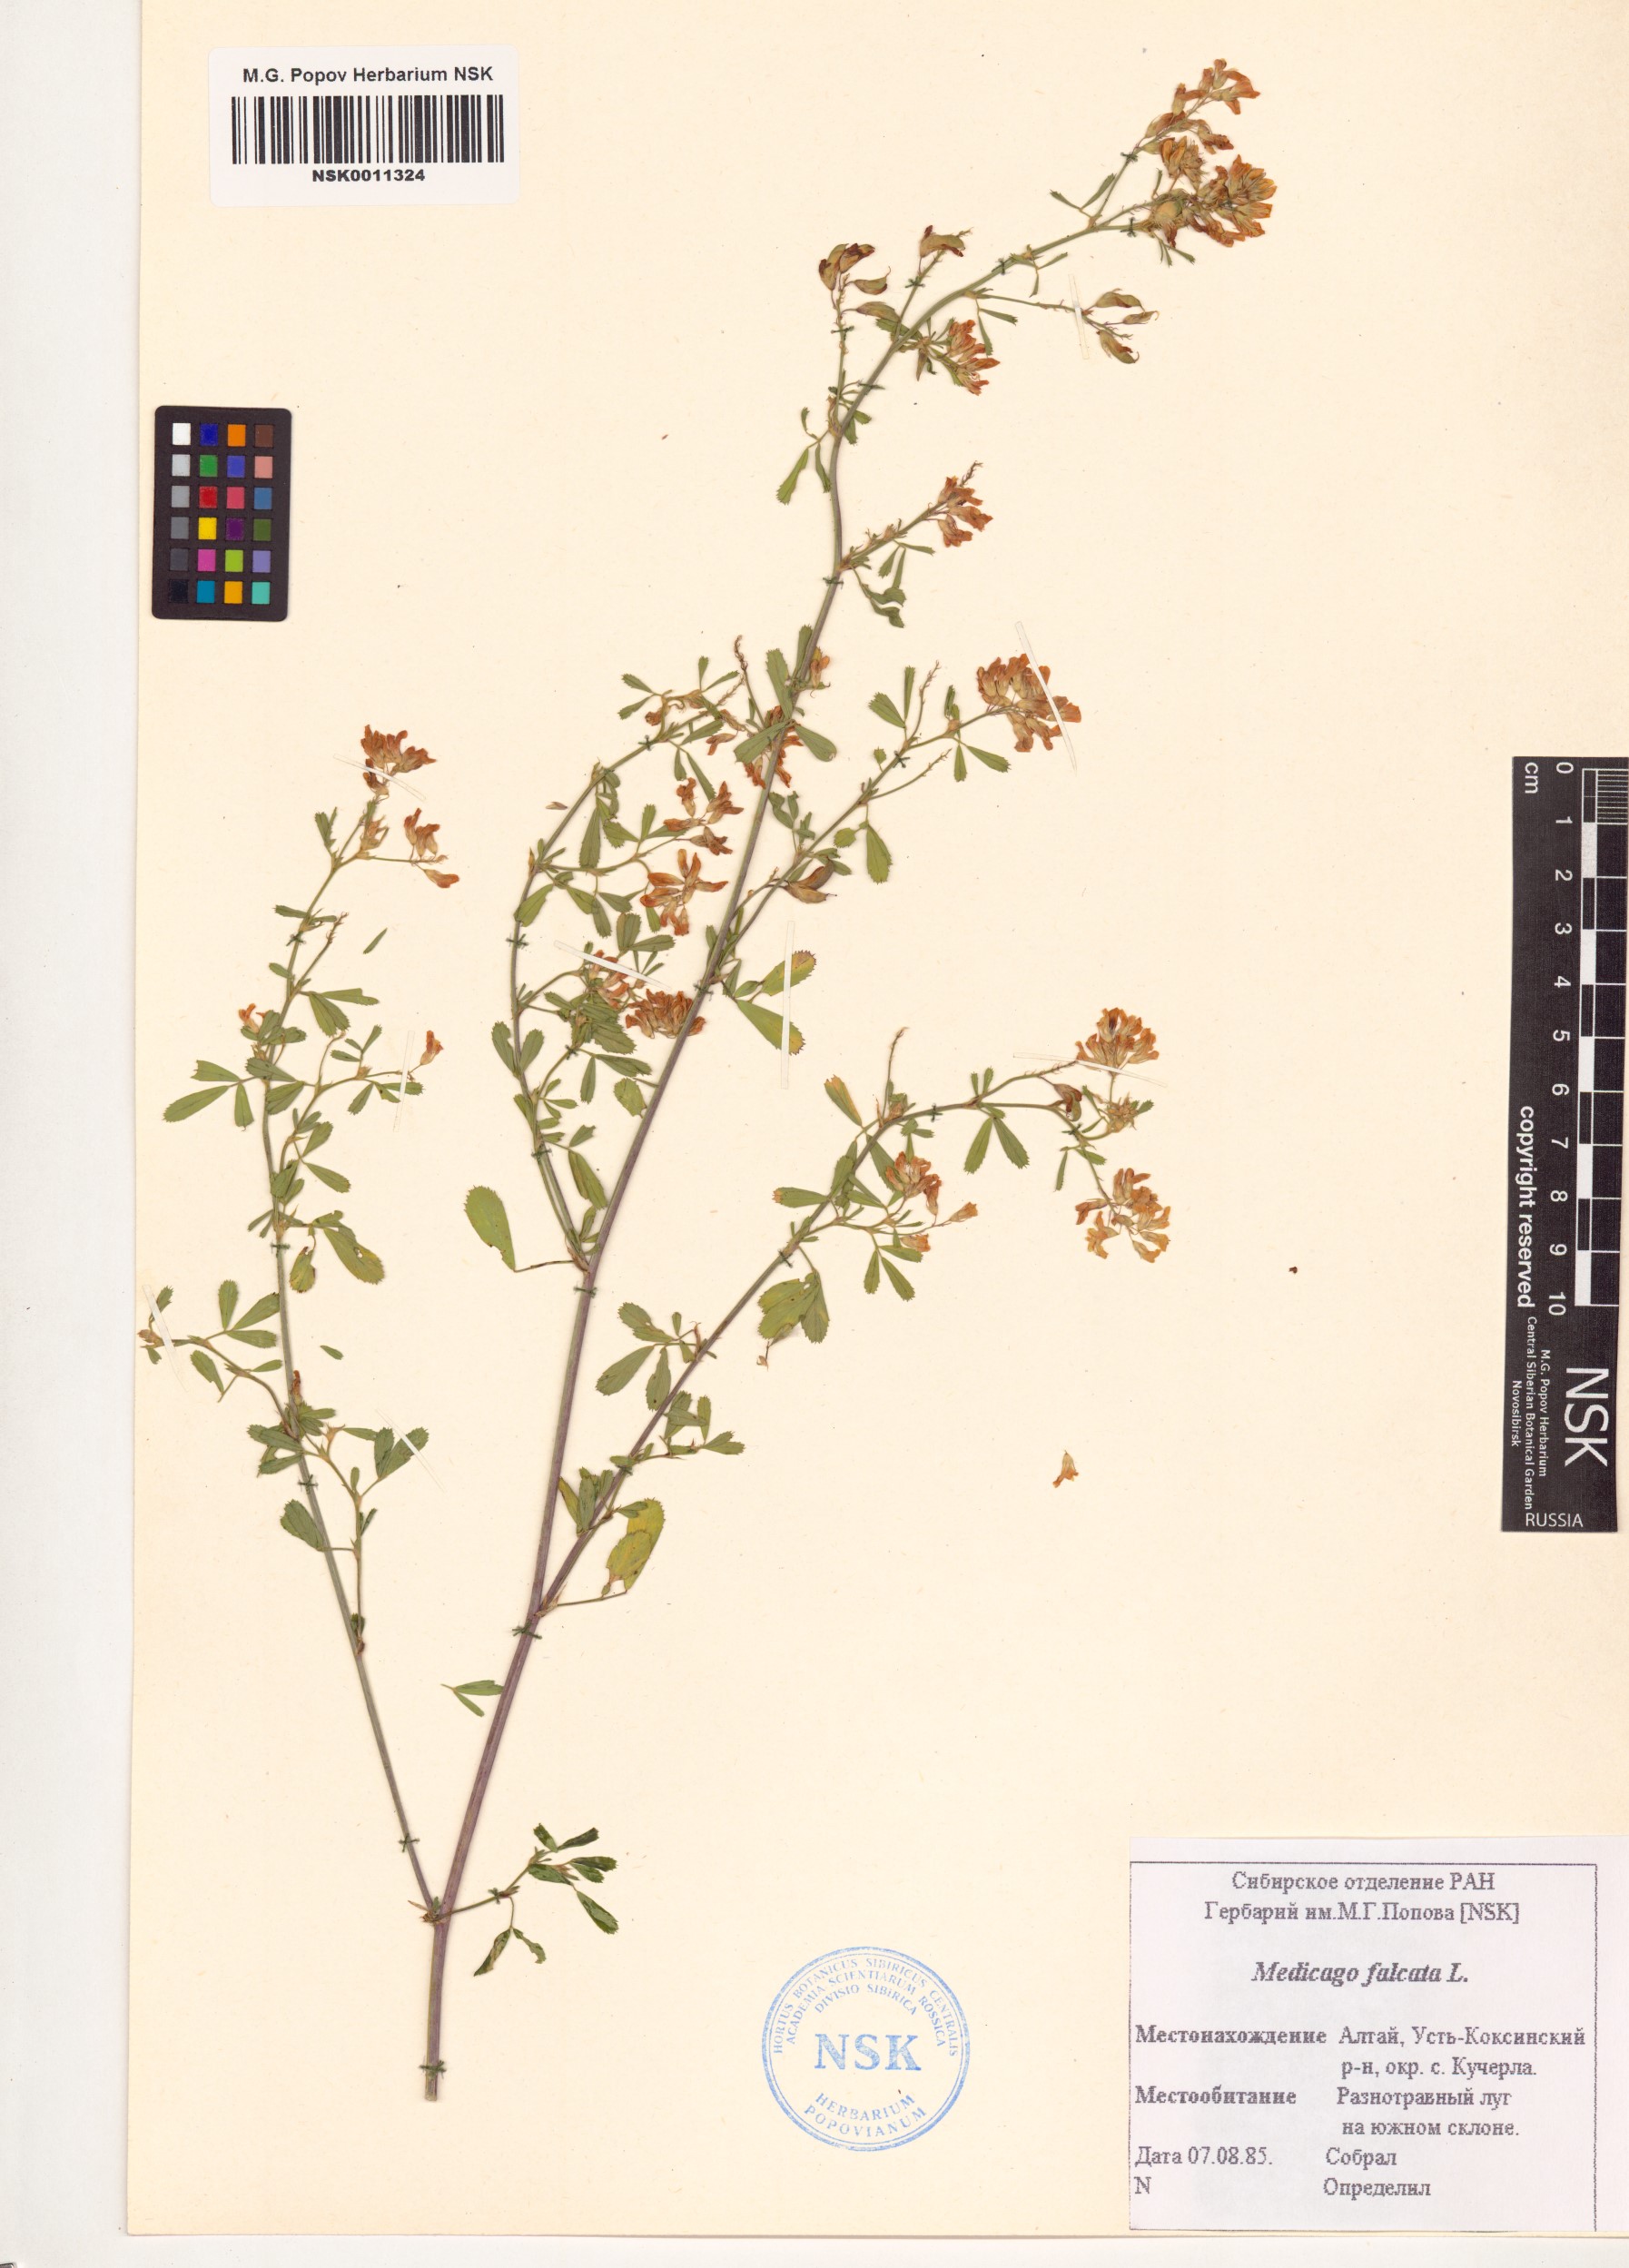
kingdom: Plantae
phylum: Tracheophyta
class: Magnoliopsida
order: Fabales
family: Fabaceae
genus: Medicago
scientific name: Medicago falcata
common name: Sickle medick
